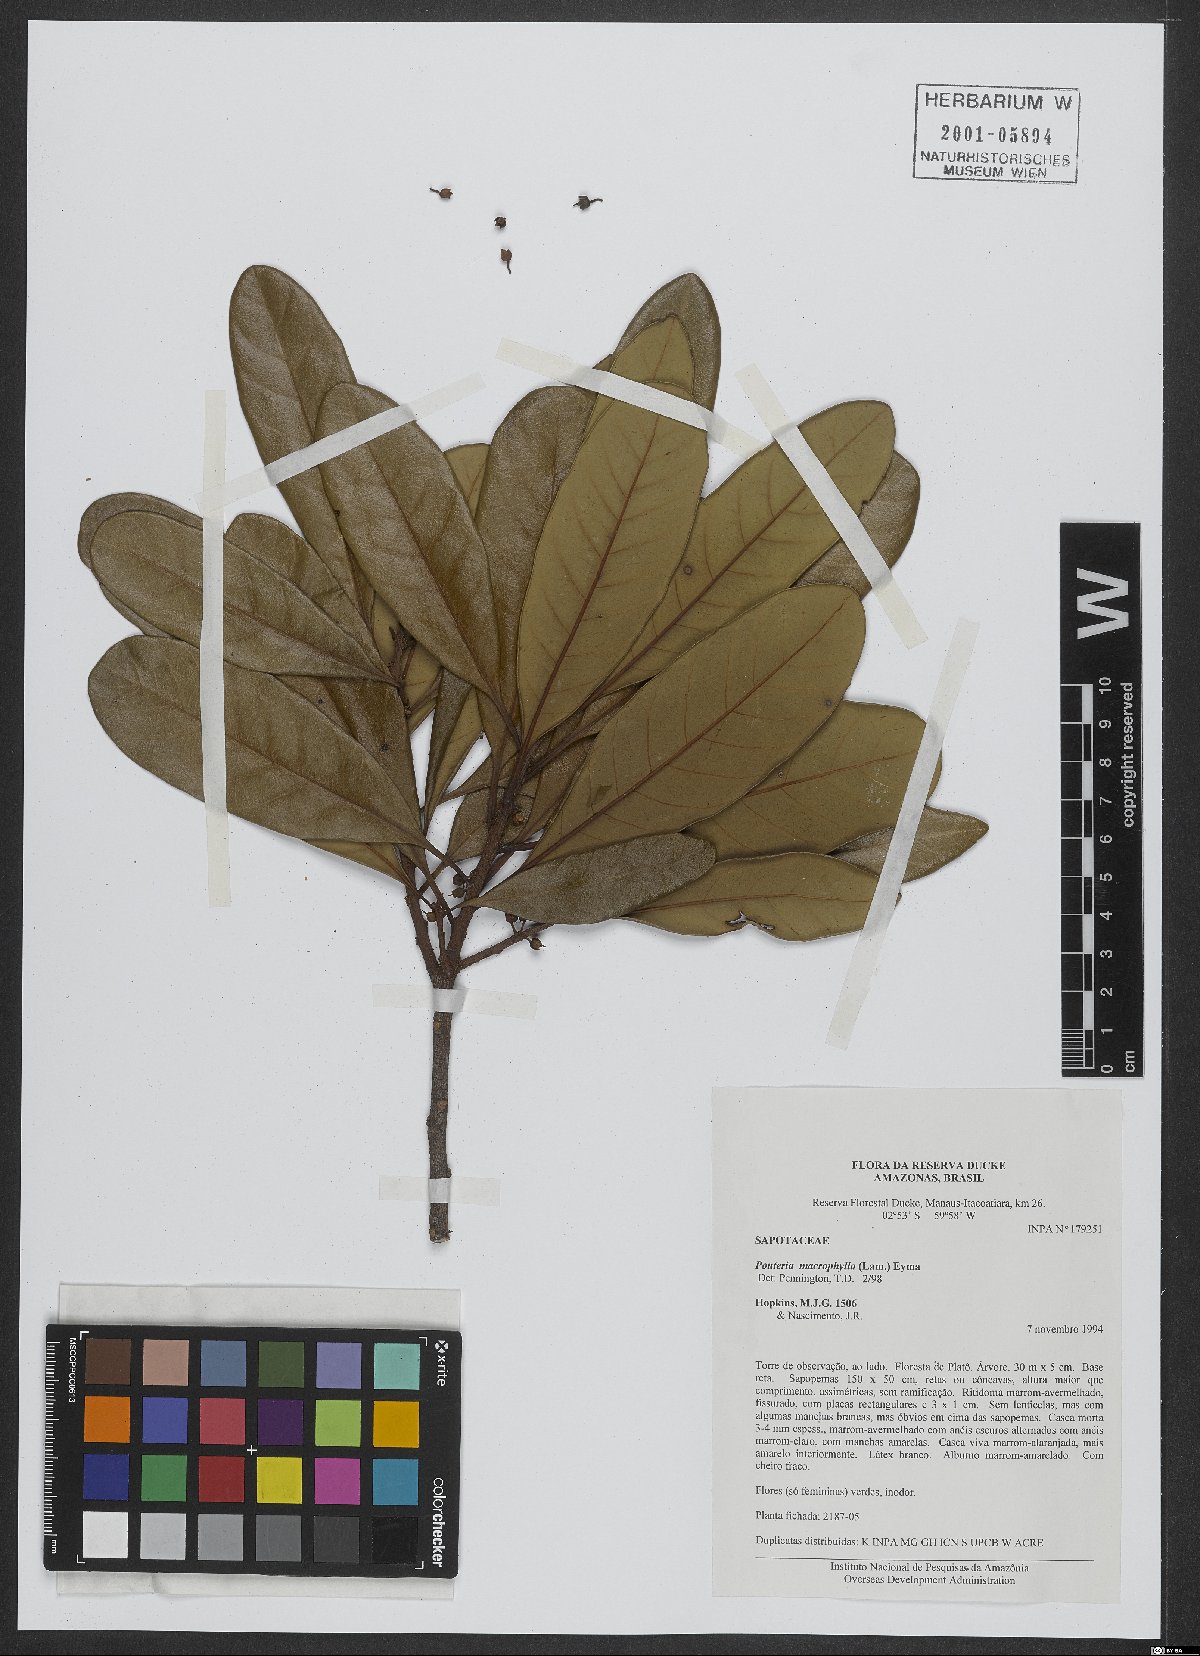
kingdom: Plantae
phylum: Tracheophyta
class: Magnoliopsida
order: Ericales
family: Sapotaceae
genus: Pouteria
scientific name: Pouteria macrophylla
